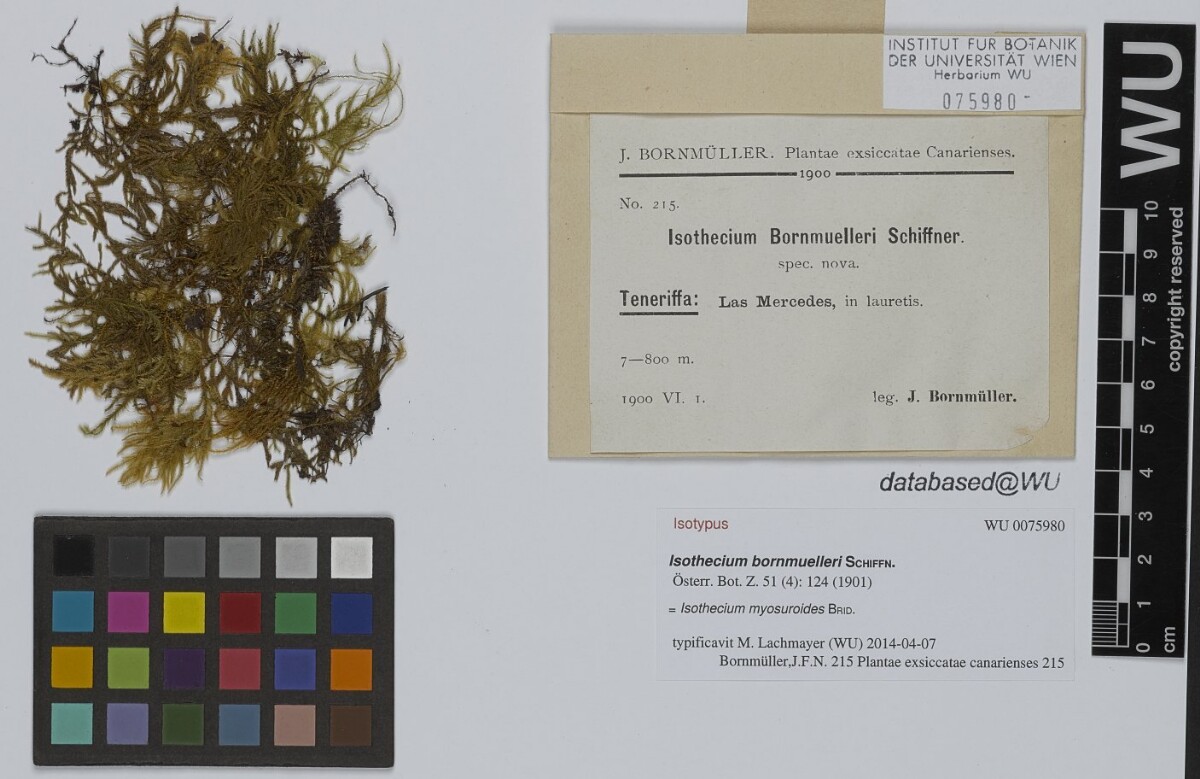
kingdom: Plantae
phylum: Bryophyta
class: Bryopsida
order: Hypnales
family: Lembophyllaceae
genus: Pseudisothecium
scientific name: Pseudisothecium myosuroides
